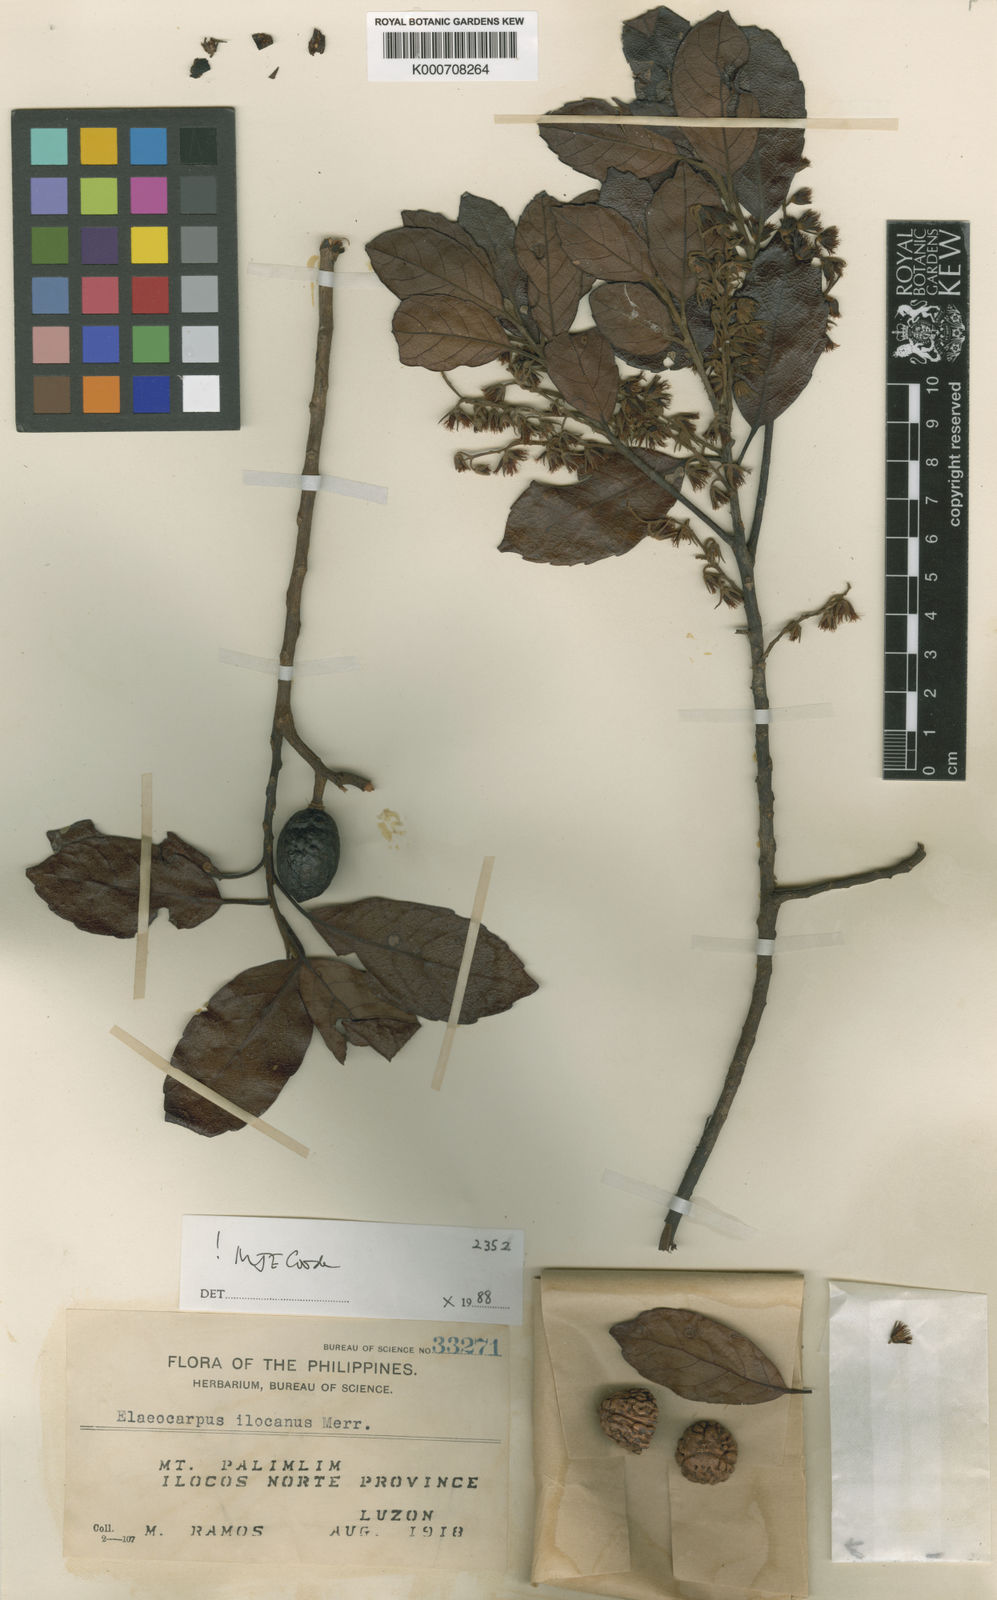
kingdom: Plantae
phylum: Tracheophyta
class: Magnoliopsida
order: Oxalidales
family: Elaeocarpaceae
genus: Elaeocarpus
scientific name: Elaeocarpus ilocanus
